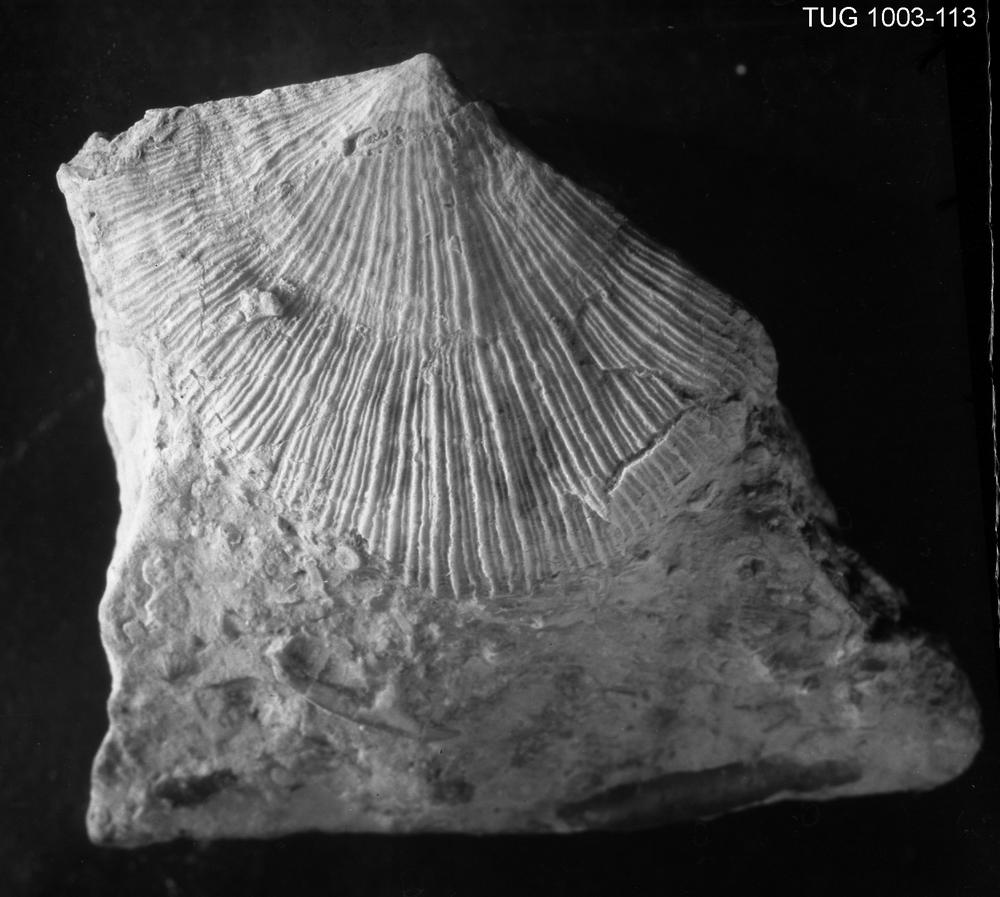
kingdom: Animalia
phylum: Brachiopoda
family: Rafinesquinidae
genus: Rakverina
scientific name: Rakverina Oepikina inaequiclina
